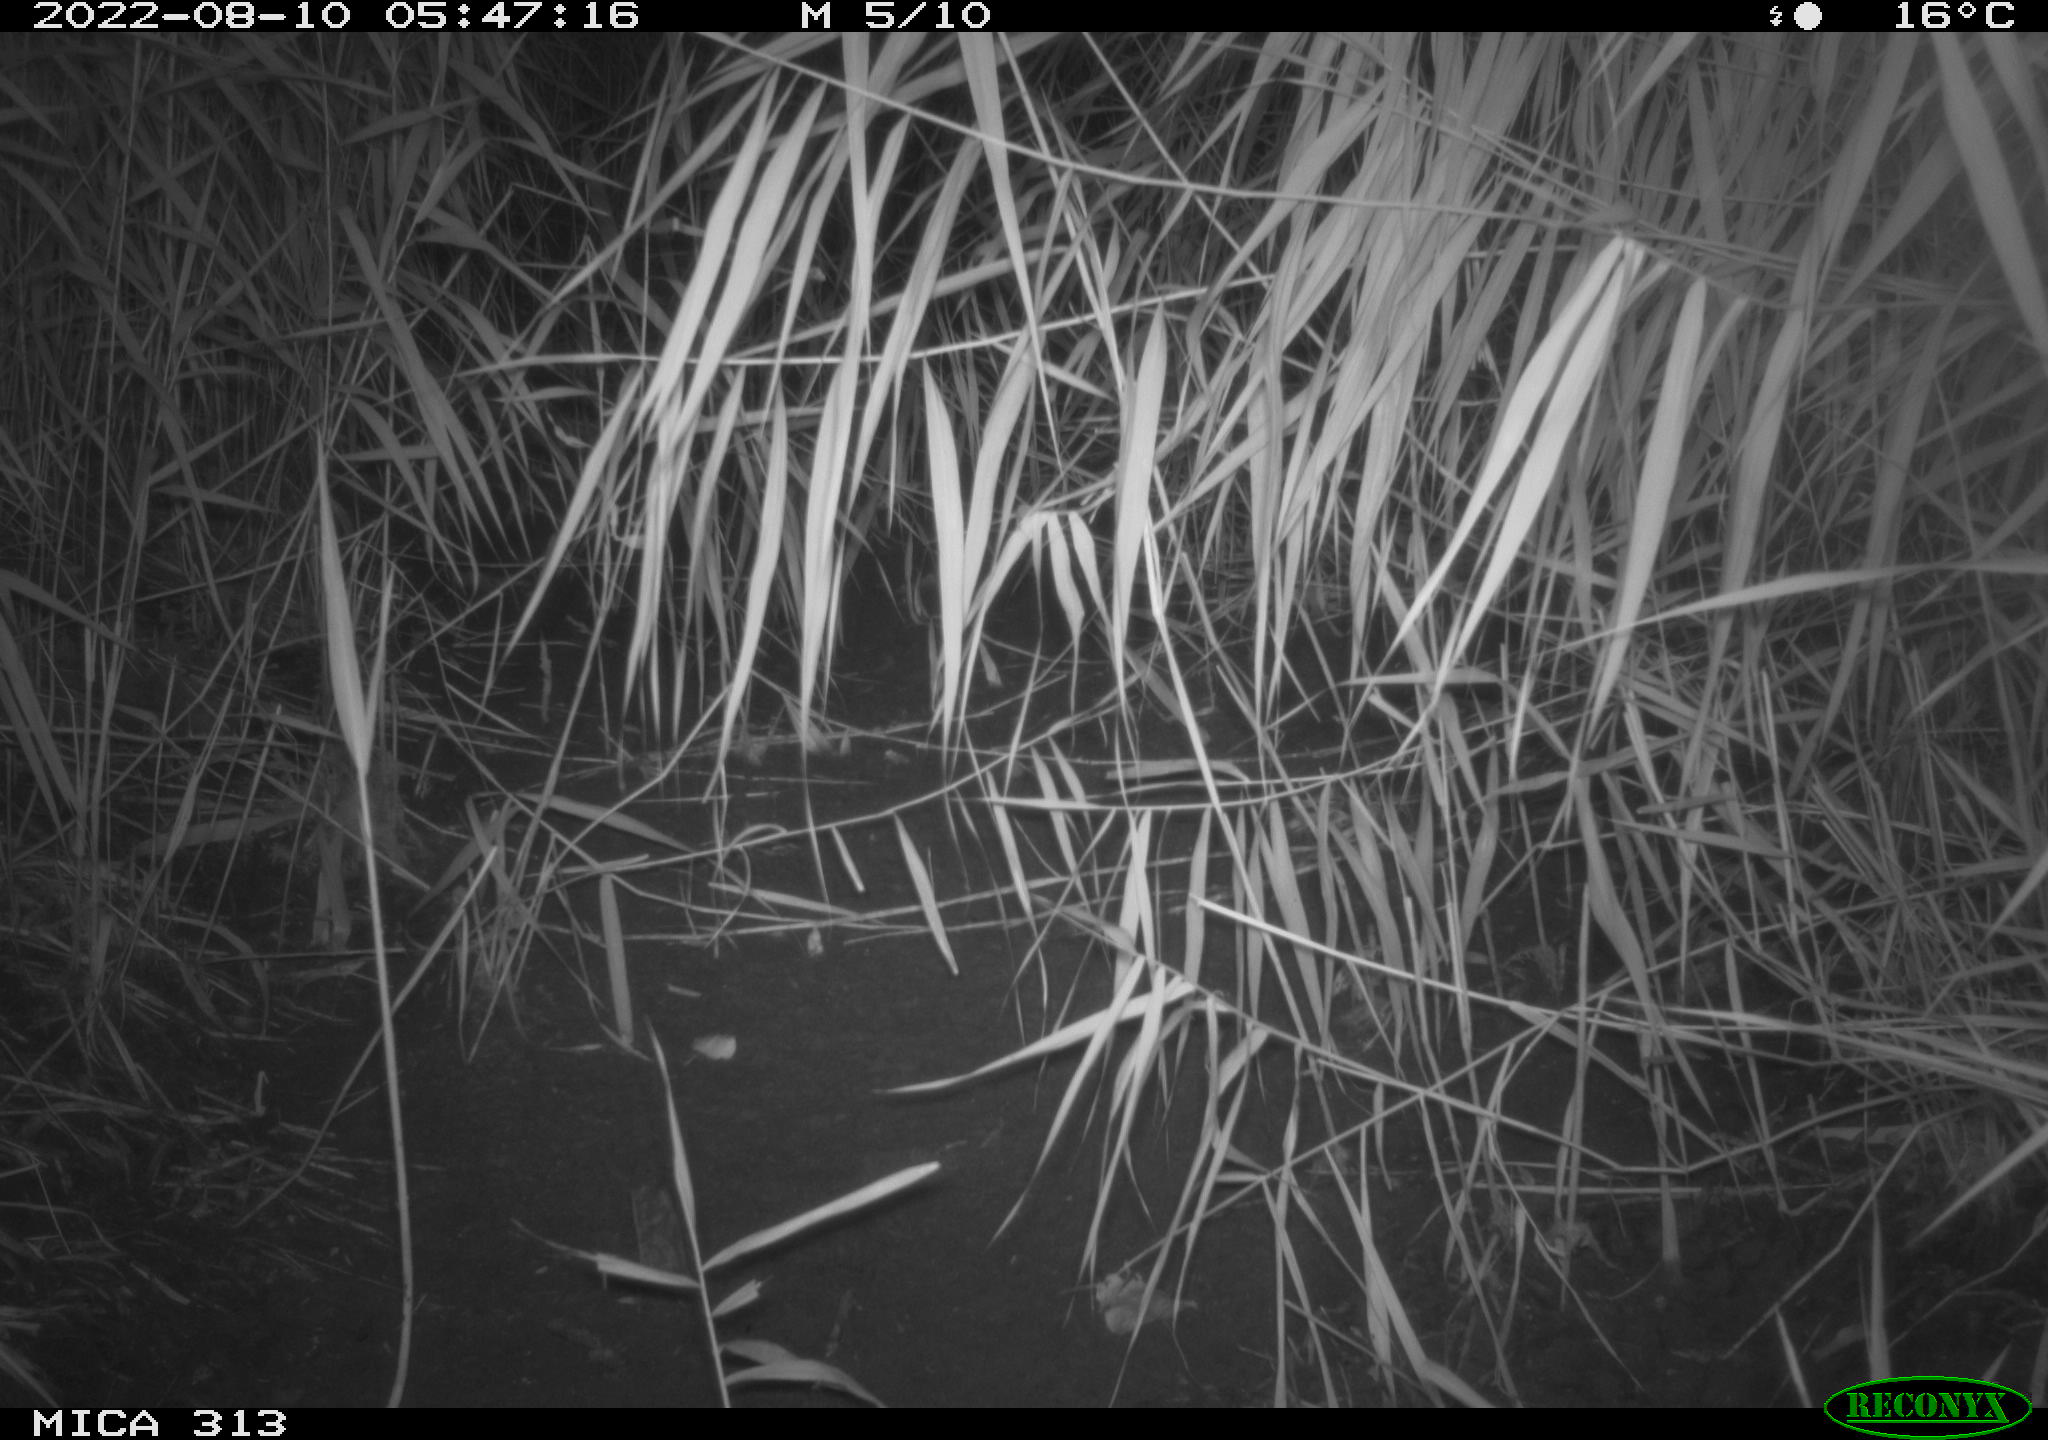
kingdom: Animalia
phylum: Chordata
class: Mammalia
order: Rodentia
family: Muridae
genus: Rattus
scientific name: Rattus norvegicus
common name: Brown rat
